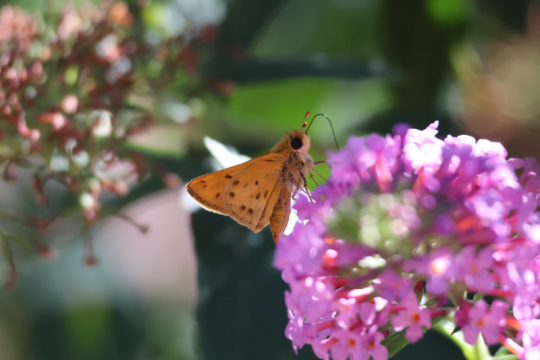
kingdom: Animalia
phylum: Arthropoda
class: Insecta
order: Lepidoptera
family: Hesperiidae
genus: Hylephila
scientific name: Hylephila phyleus
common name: Fiery Skipper
